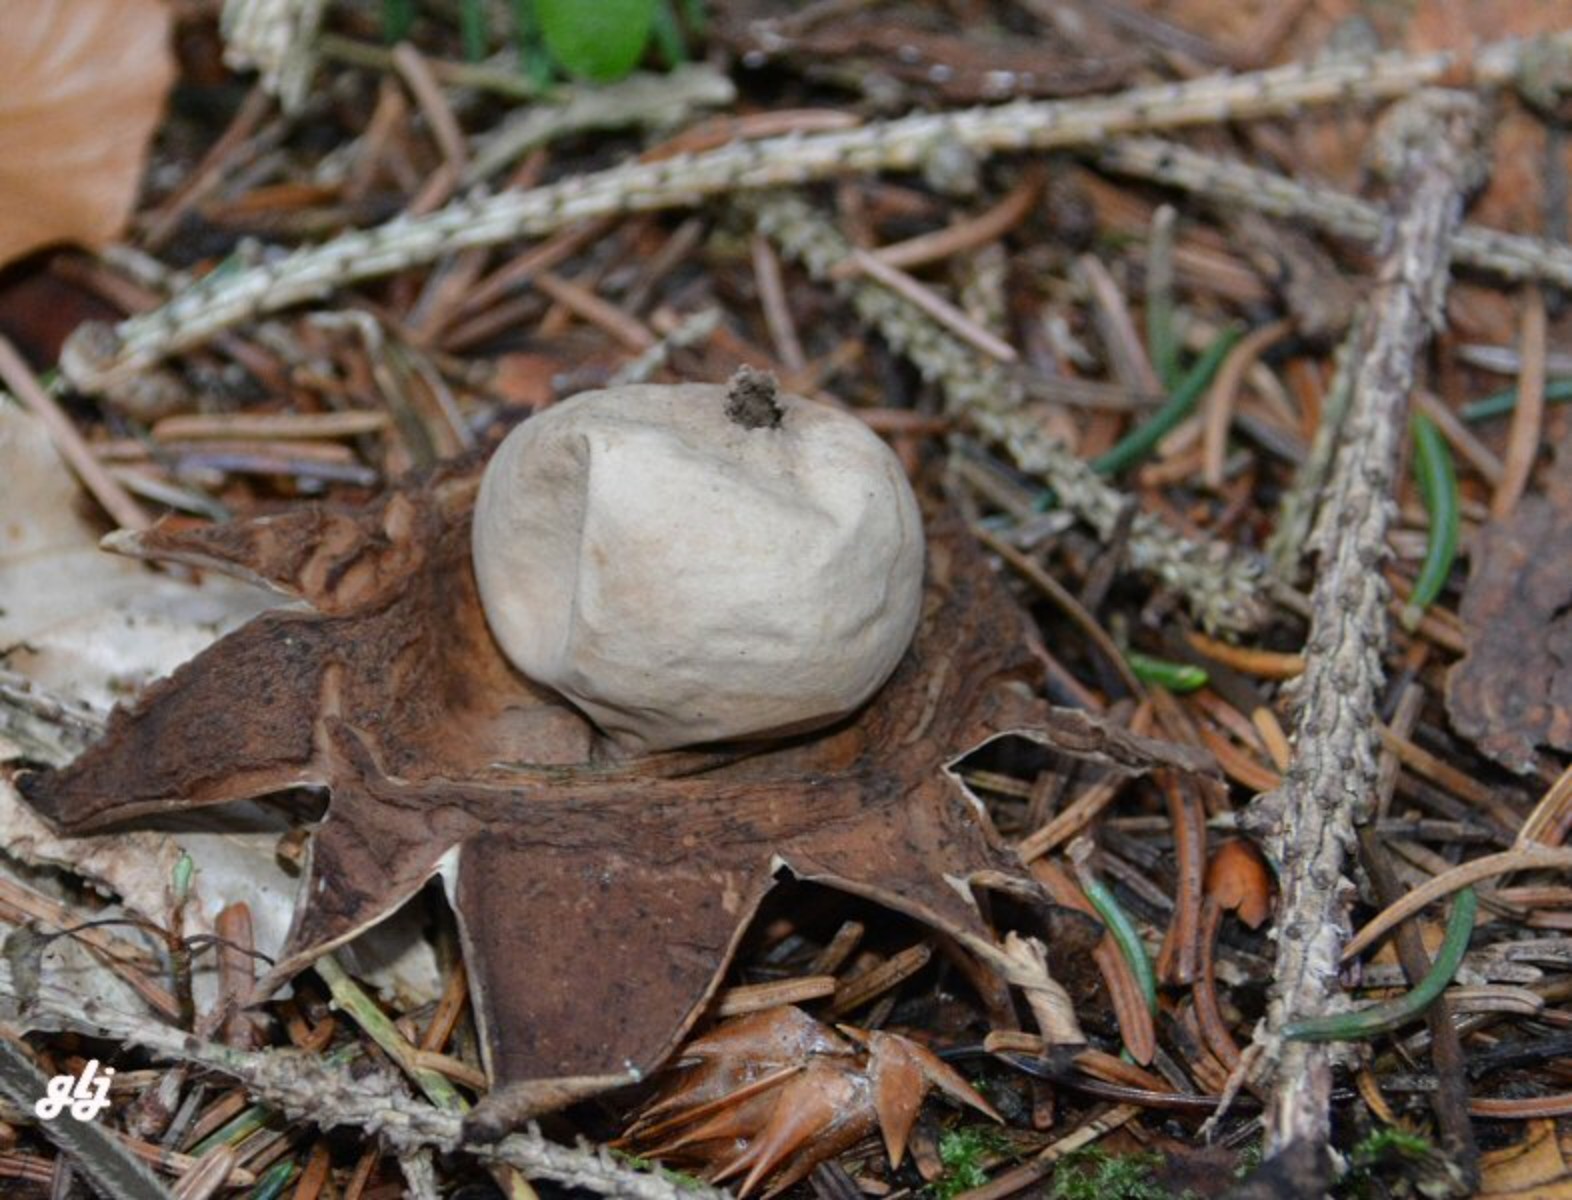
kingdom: Fungi
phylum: Basidiomycota
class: Agaricomycetes
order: Geastrales
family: Geastraceae
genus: Geastrum
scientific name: Geastrum michelianum
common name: kødet stjernebold
